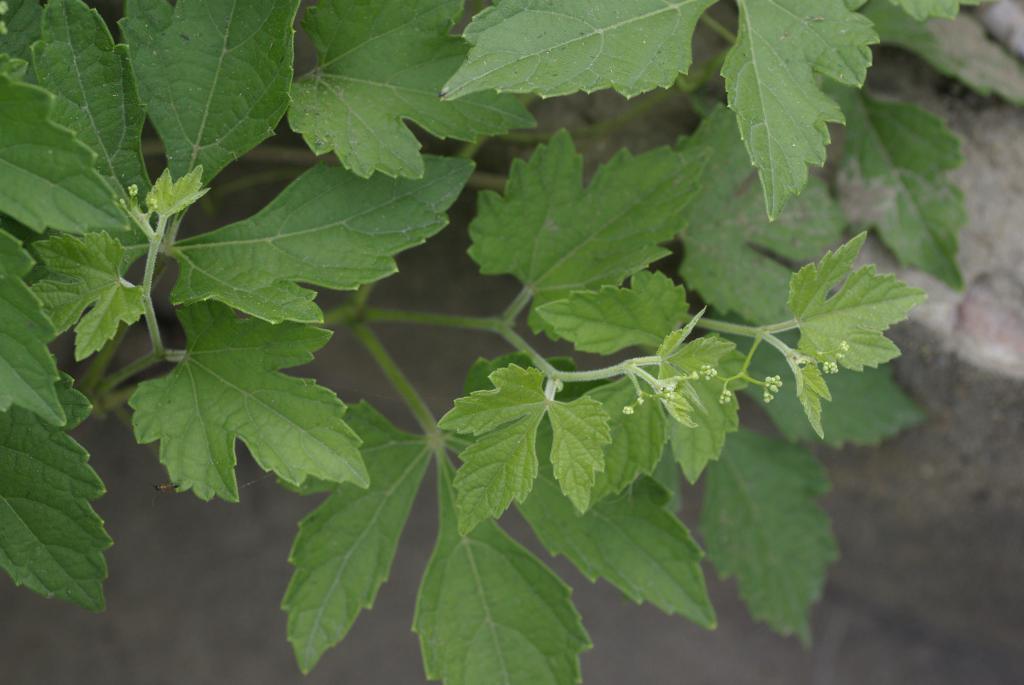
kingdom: Plantae
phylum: Tracheophyta
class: Magnoliopsida
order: Vitales
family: Vitaceae
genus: Ampelopsis
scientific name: Ampelopsis glandulosa
